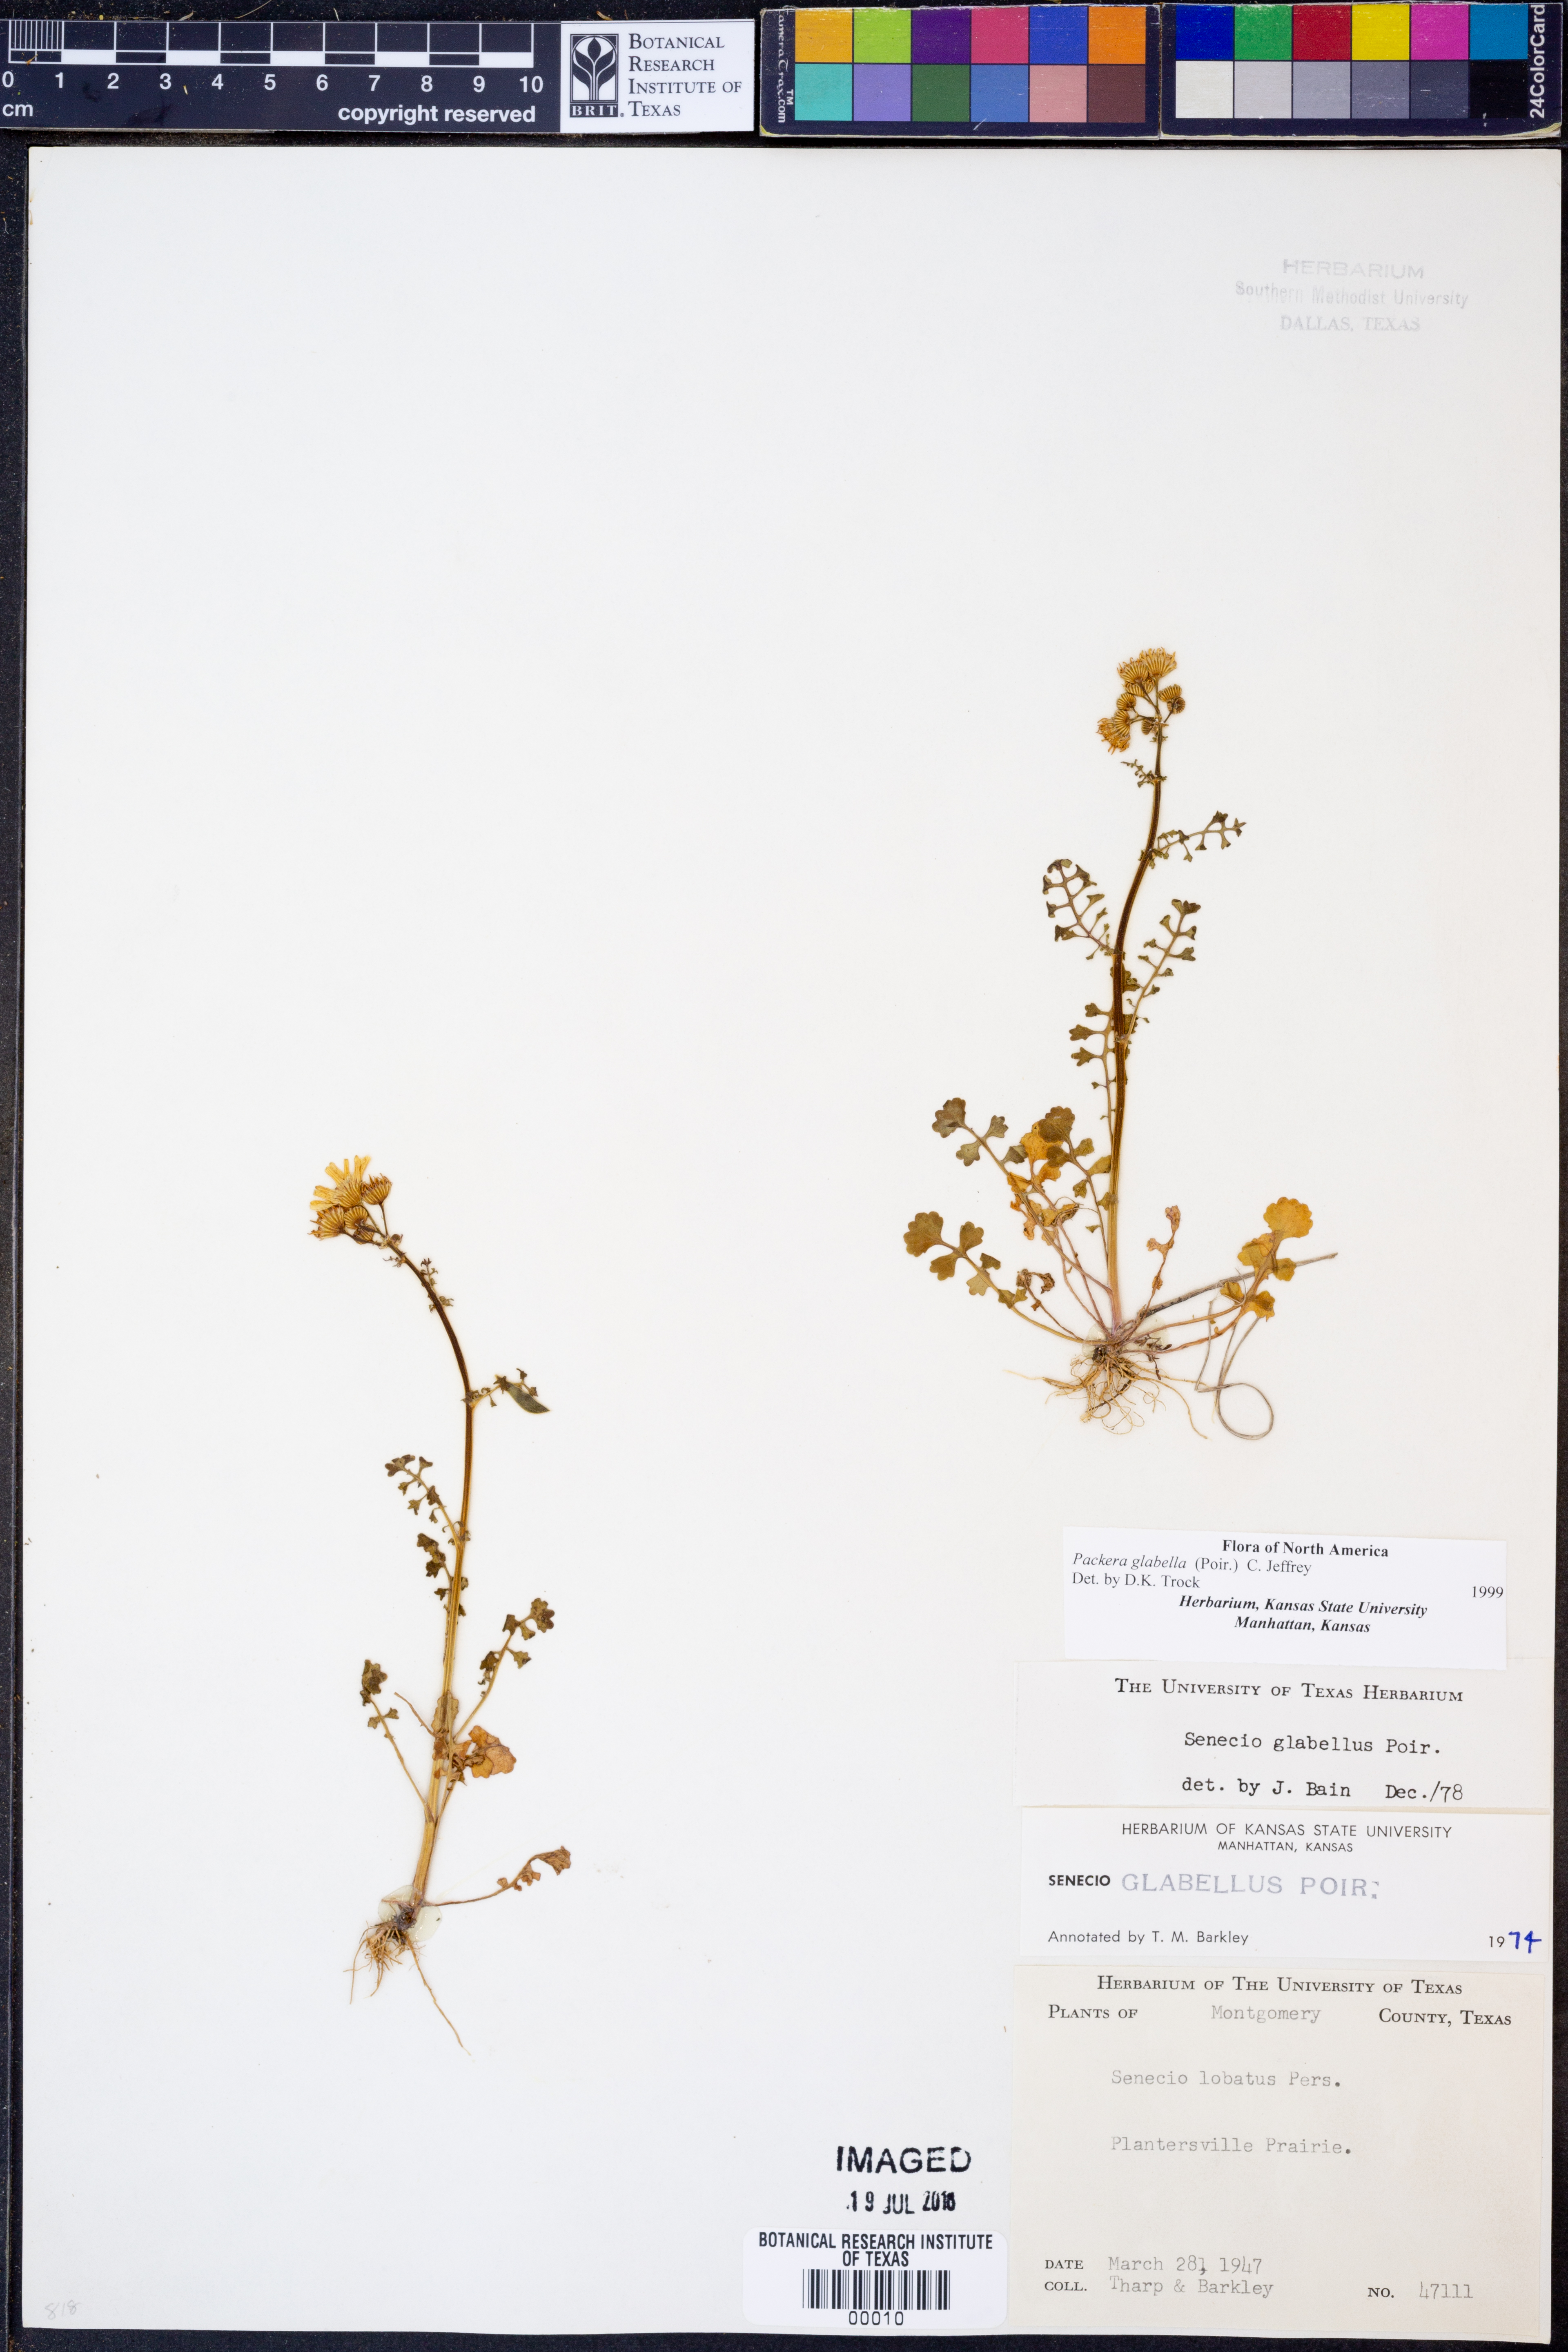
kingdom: Plantae
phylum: Tracheophyta
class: Magnoliopsida
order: Asterales
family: Asteraceae
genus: Packera
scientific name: Packera glabella
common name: Butterweed
